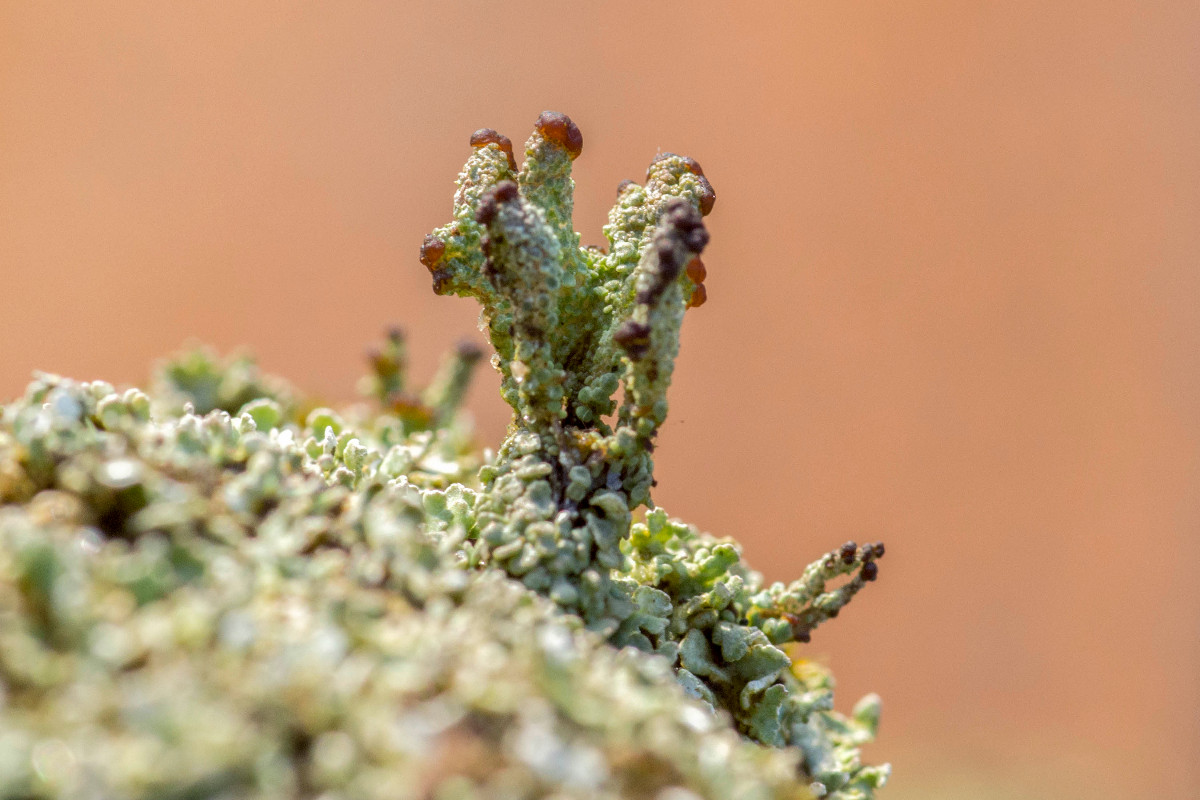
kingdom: Fungi
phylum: Ascomycota
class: Lecanoromycetes
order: Lecanorales
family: Cladoniaceae
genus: Cladonia
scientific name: Cladonia cariosa
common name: furet bægerlav
